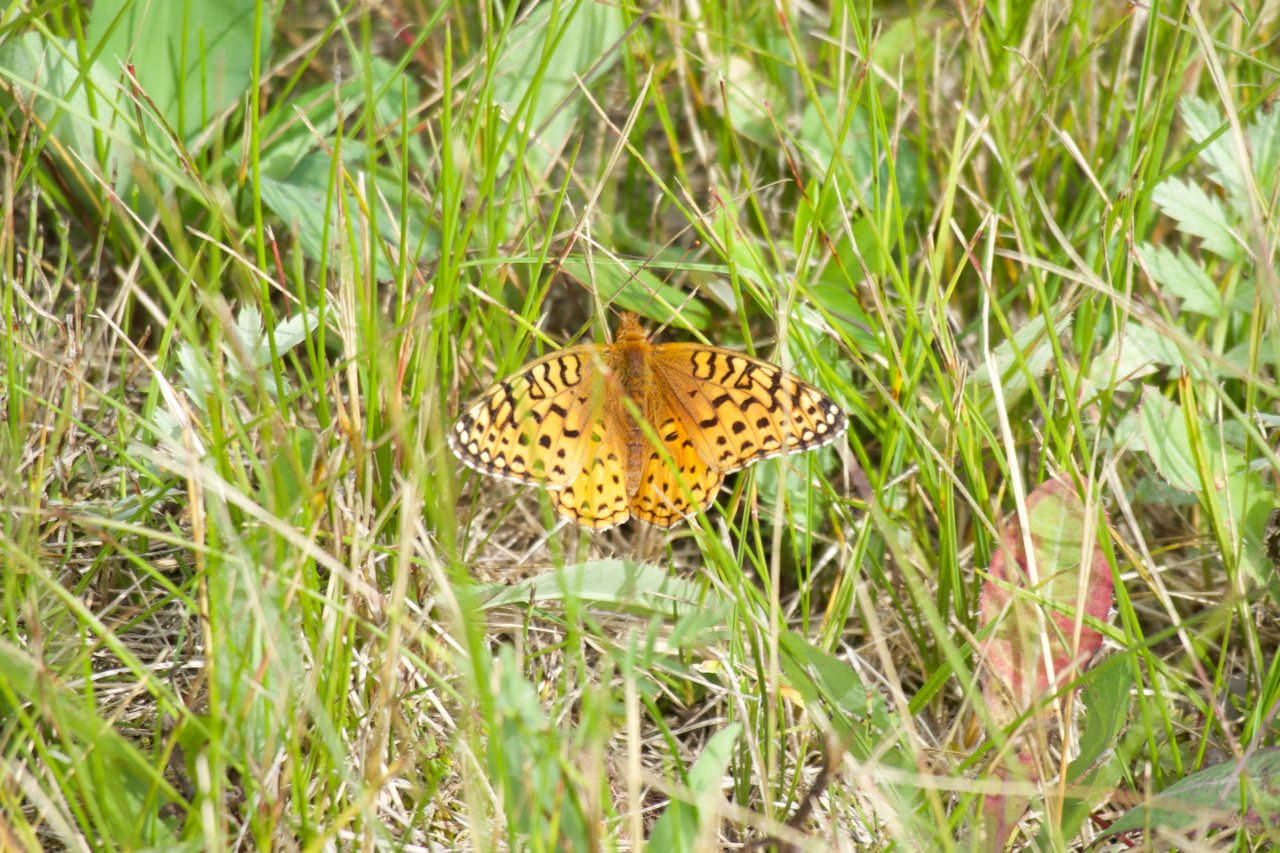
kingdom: Animalia
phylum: Arthropoda
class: Insecta
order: Lepidoptera
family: Nymphalidae
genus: Speyeria
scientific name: Speyeria atlantis
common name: Northwestern Fritillary
